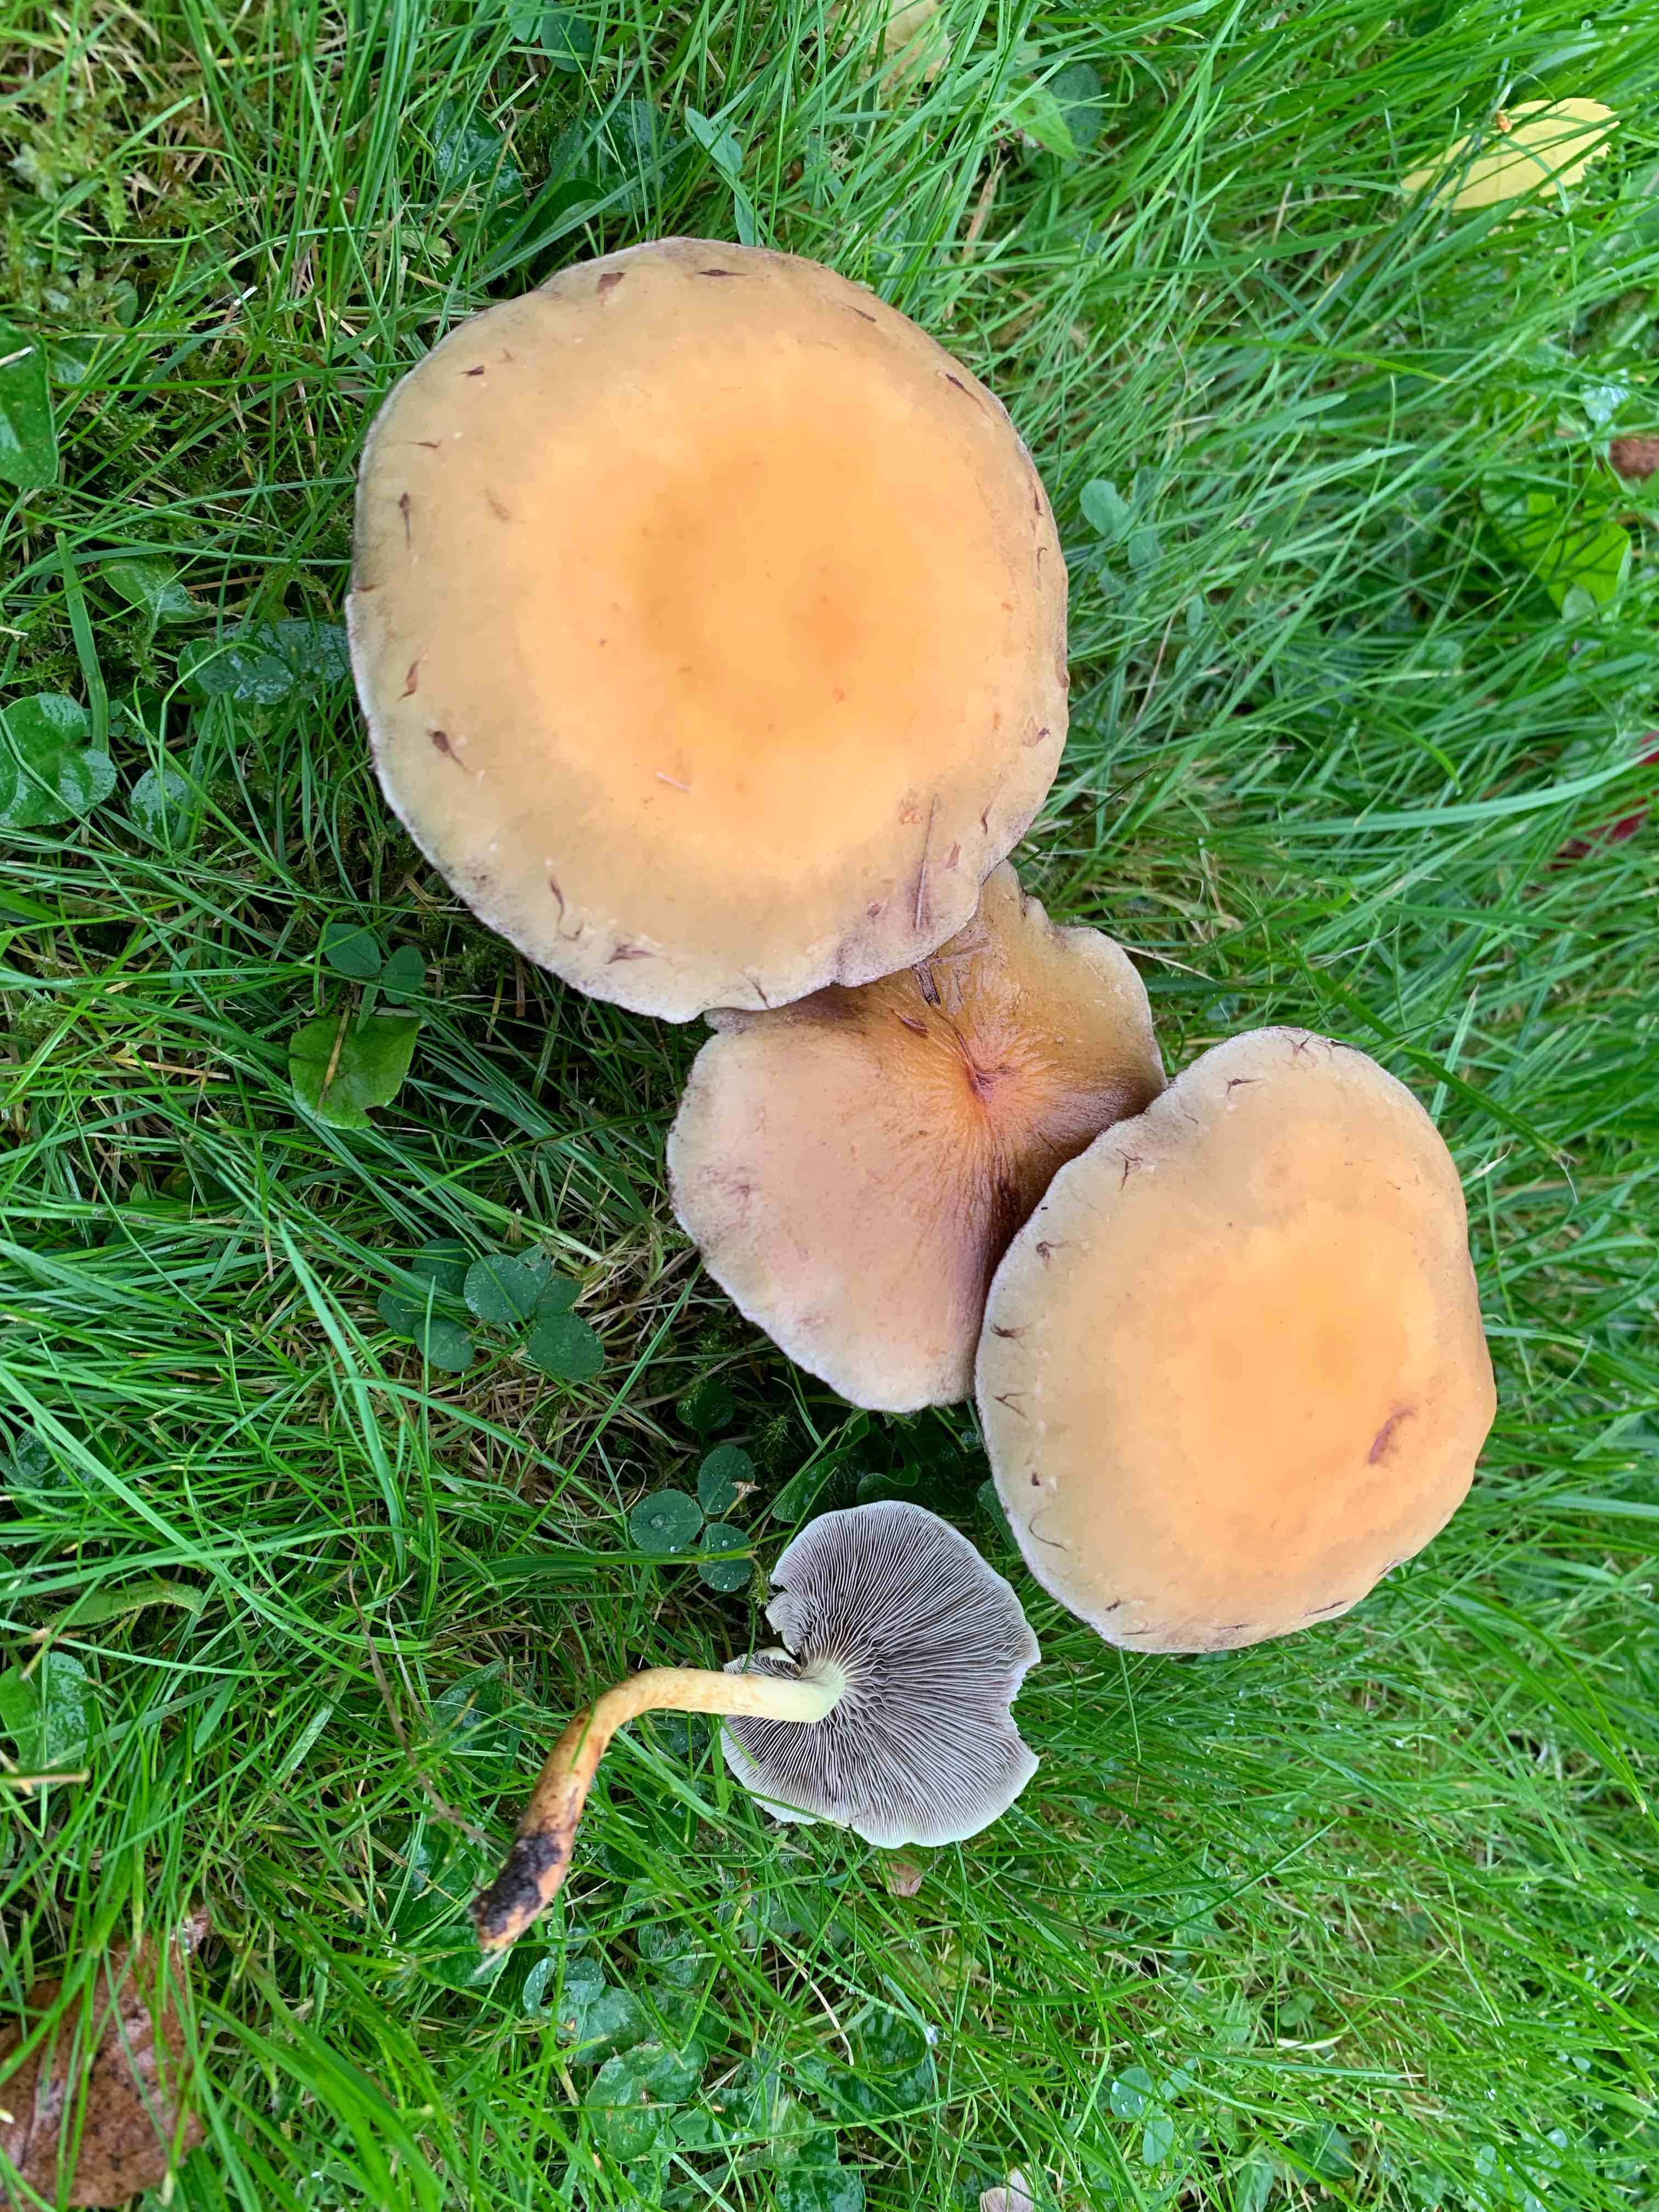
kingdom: Fungi
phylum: Basidiomycota
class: Agaricomycetes
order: Agaricales
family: Strophariaceae
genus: Hypholoma
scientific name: Hypholoma fasciculare
